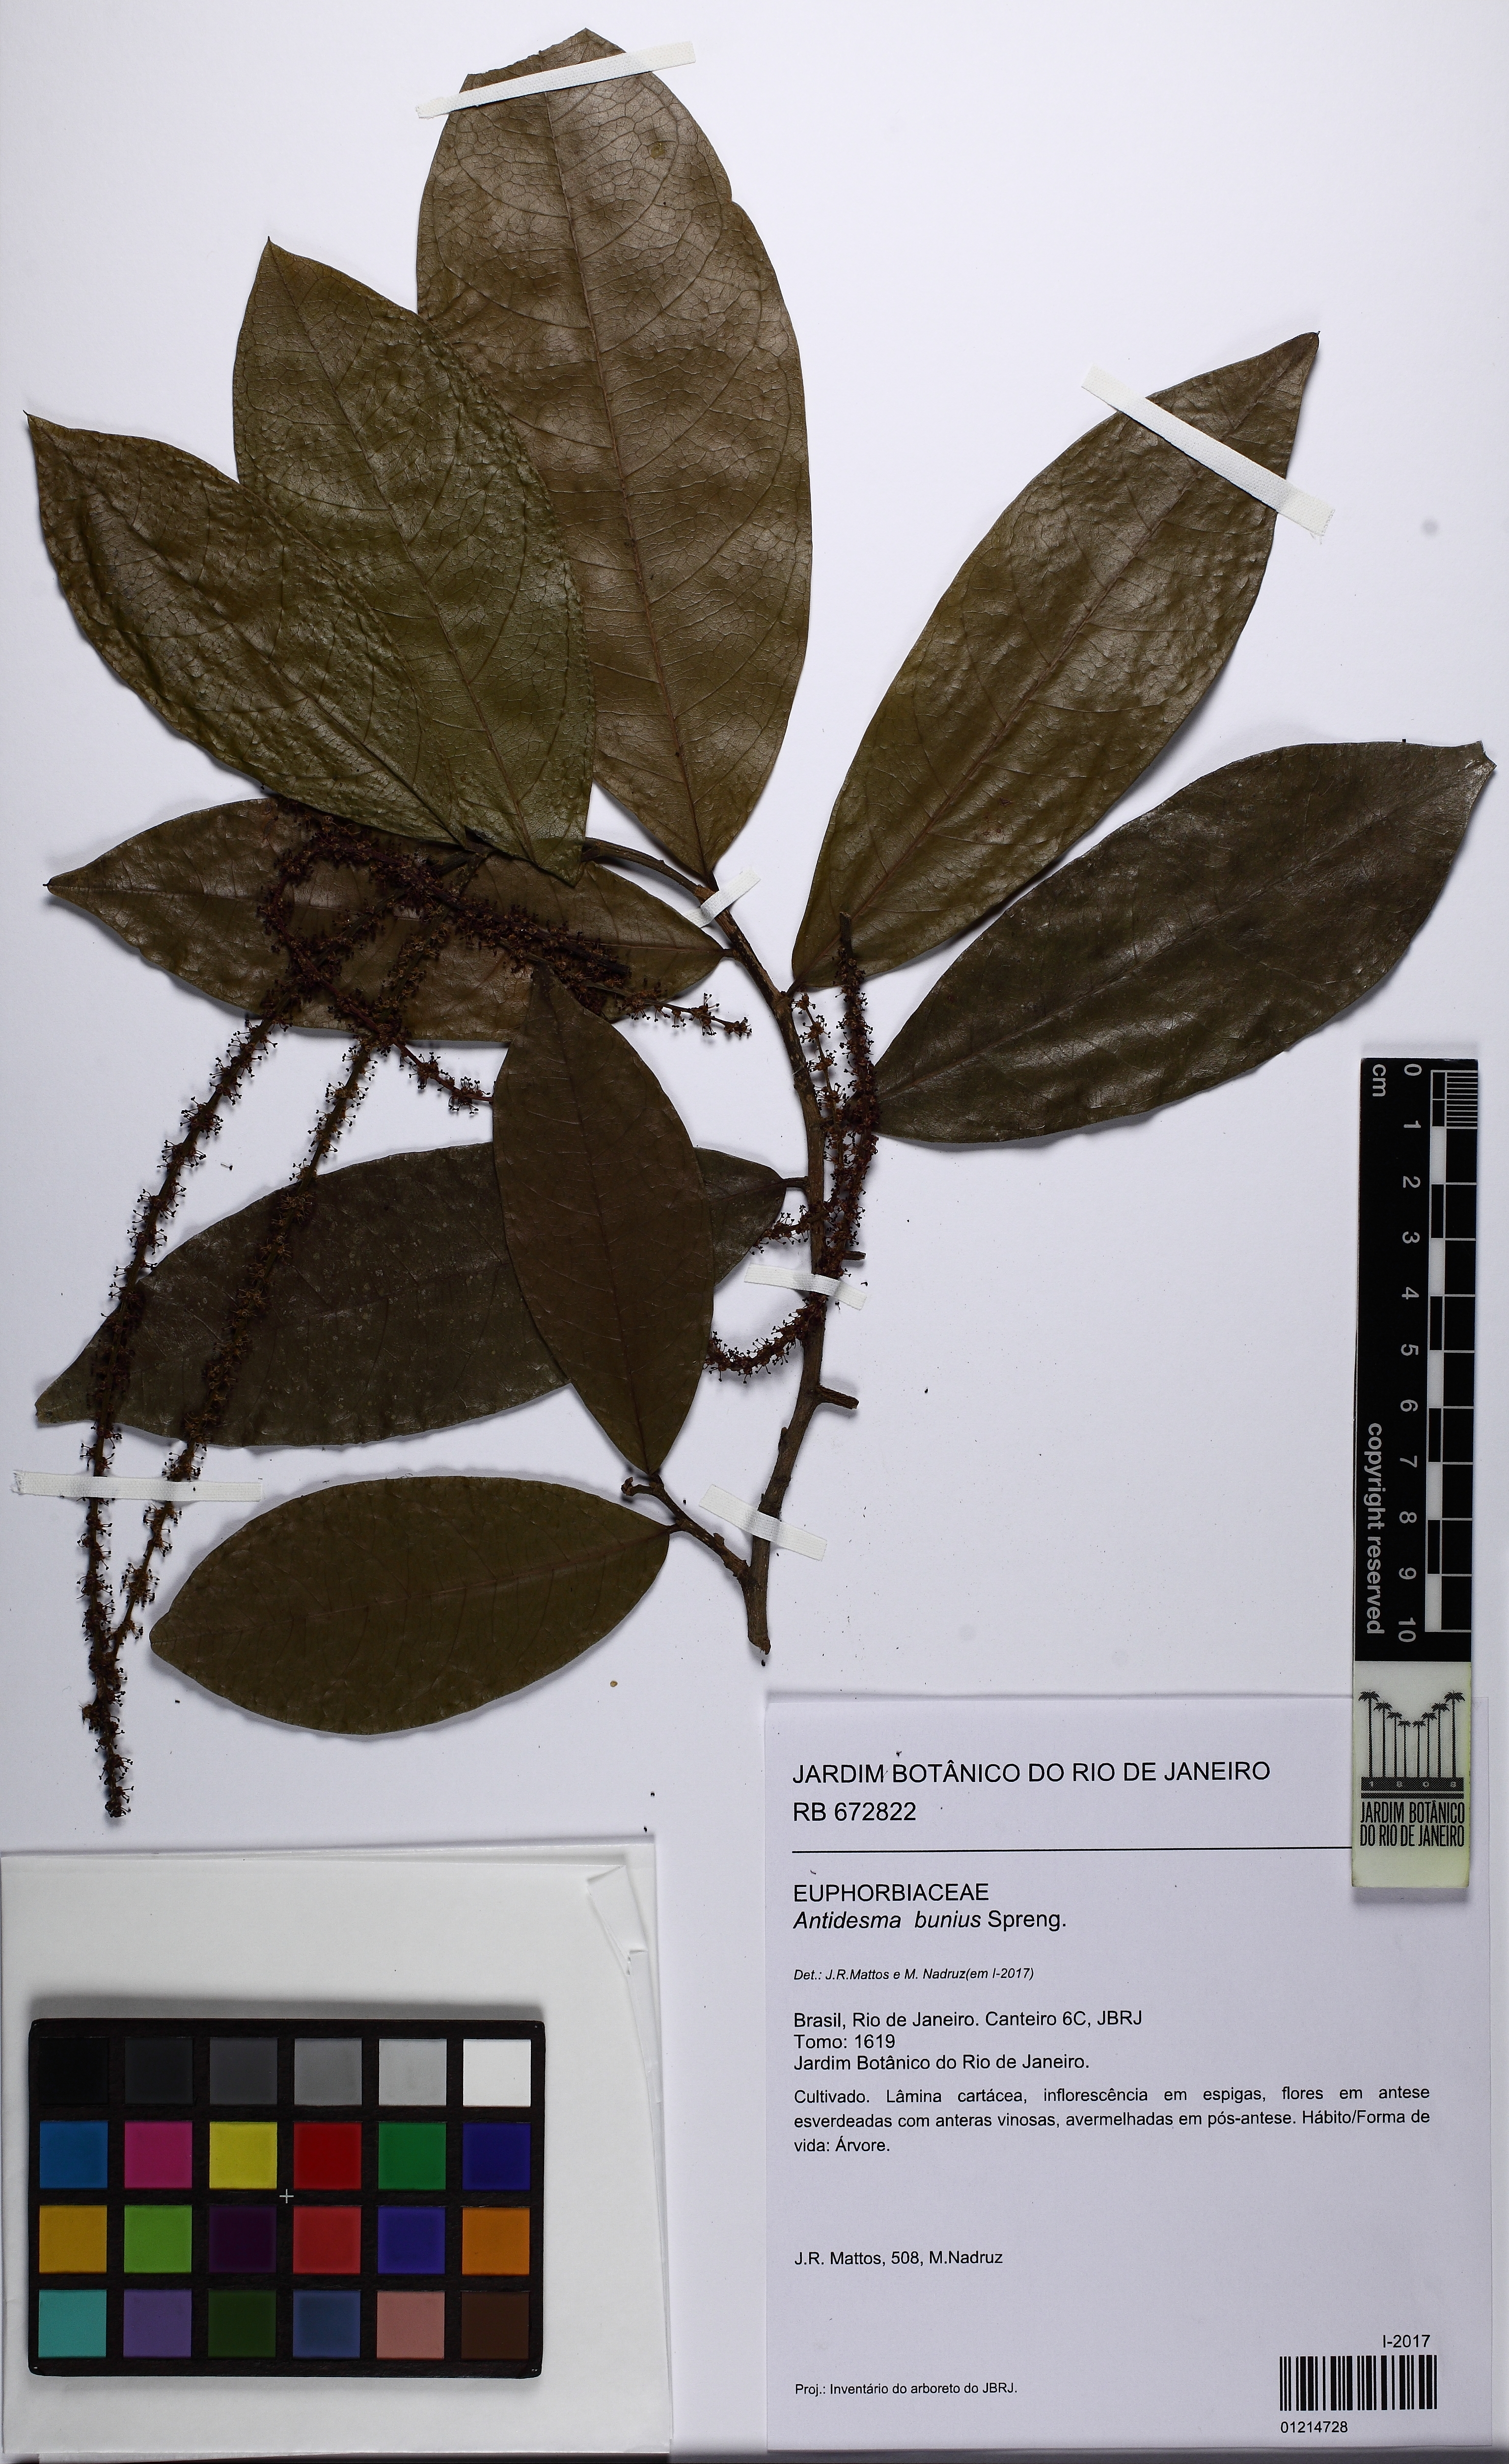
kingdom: Plantae
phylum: Tracheophyta
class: Magnoliopsida
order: Malpighiales
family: Phyllanthaceae
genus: Antidesma
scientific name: Antidesma bunius
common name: Chinese-laurel
